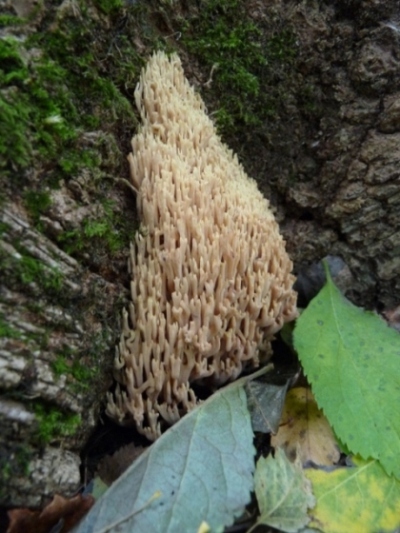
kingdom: Fungi
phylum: Basidiomycota
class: Agaricomycetes
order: Gomphales
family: Gomphaceae
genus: Ramaria
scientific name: Ramaria stricta
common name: rank koralsvamp
